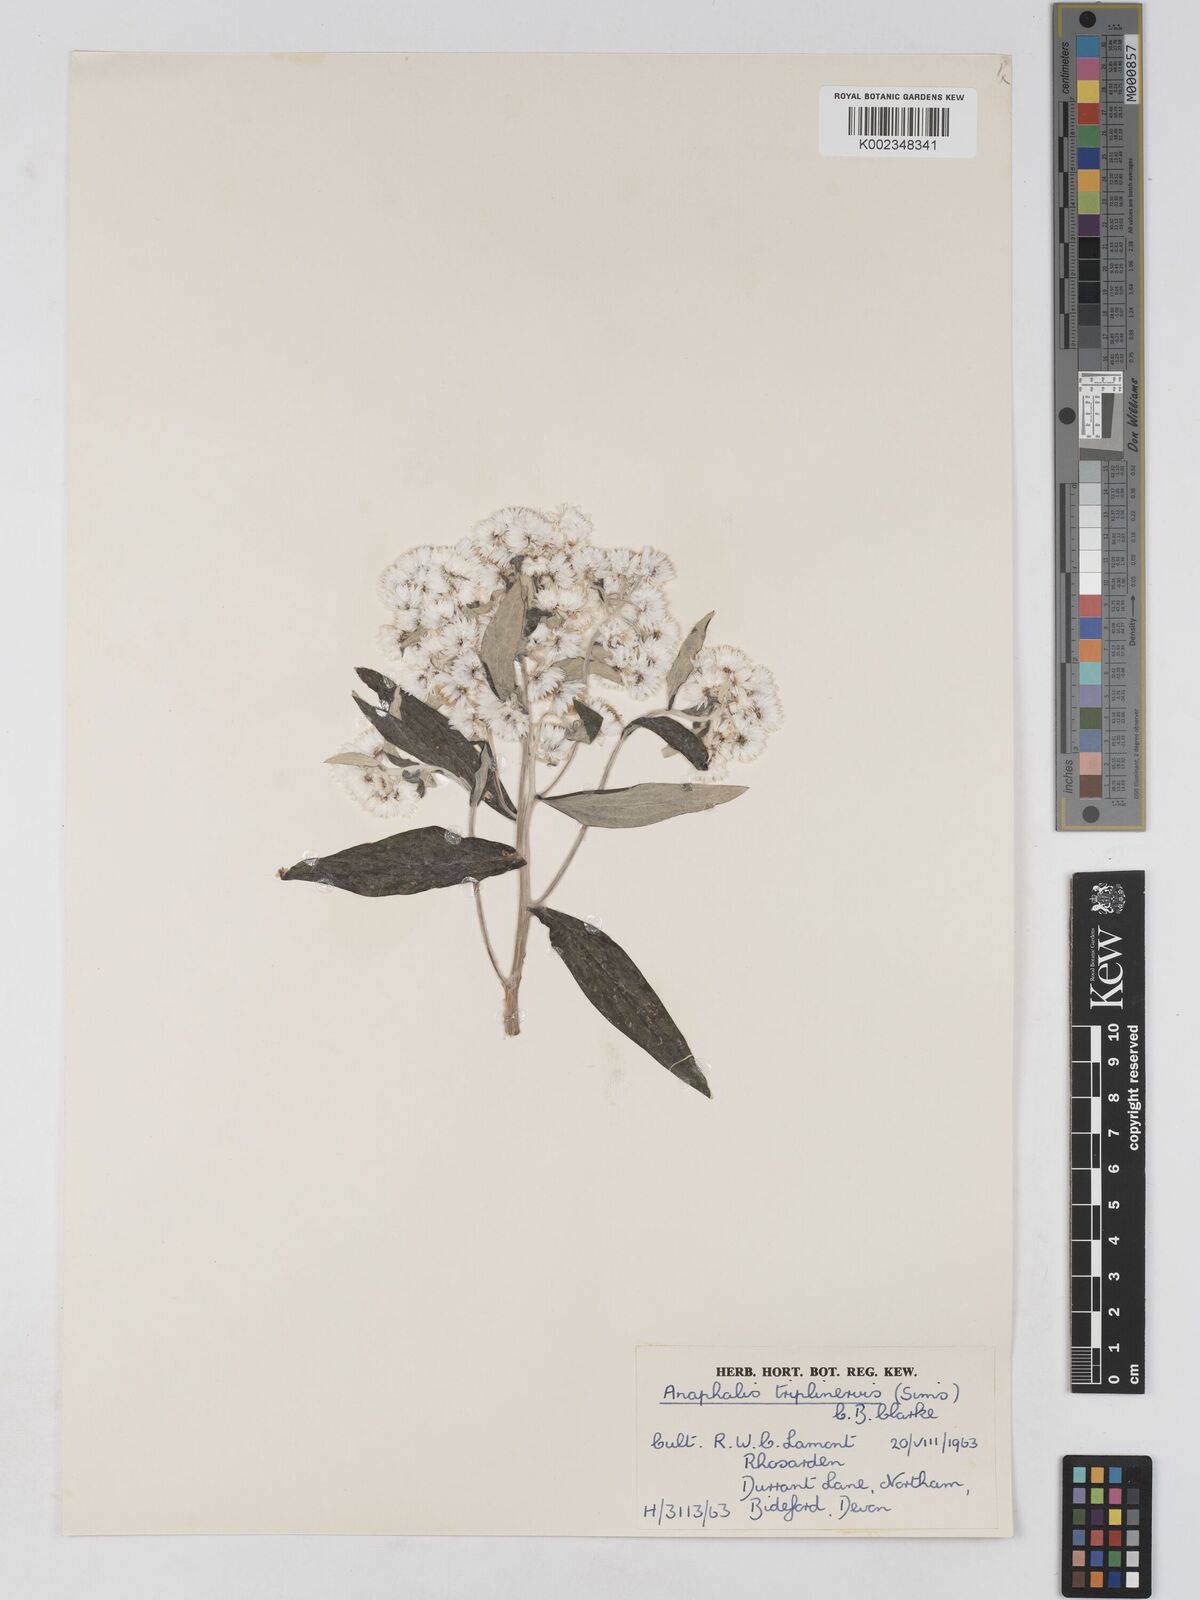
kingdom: Plantae
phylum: Tracheophyta
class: Magnoliopsida
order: Asterales
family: Asteraceae
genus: Anaphalis
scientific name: Anaphalis nepalensis
